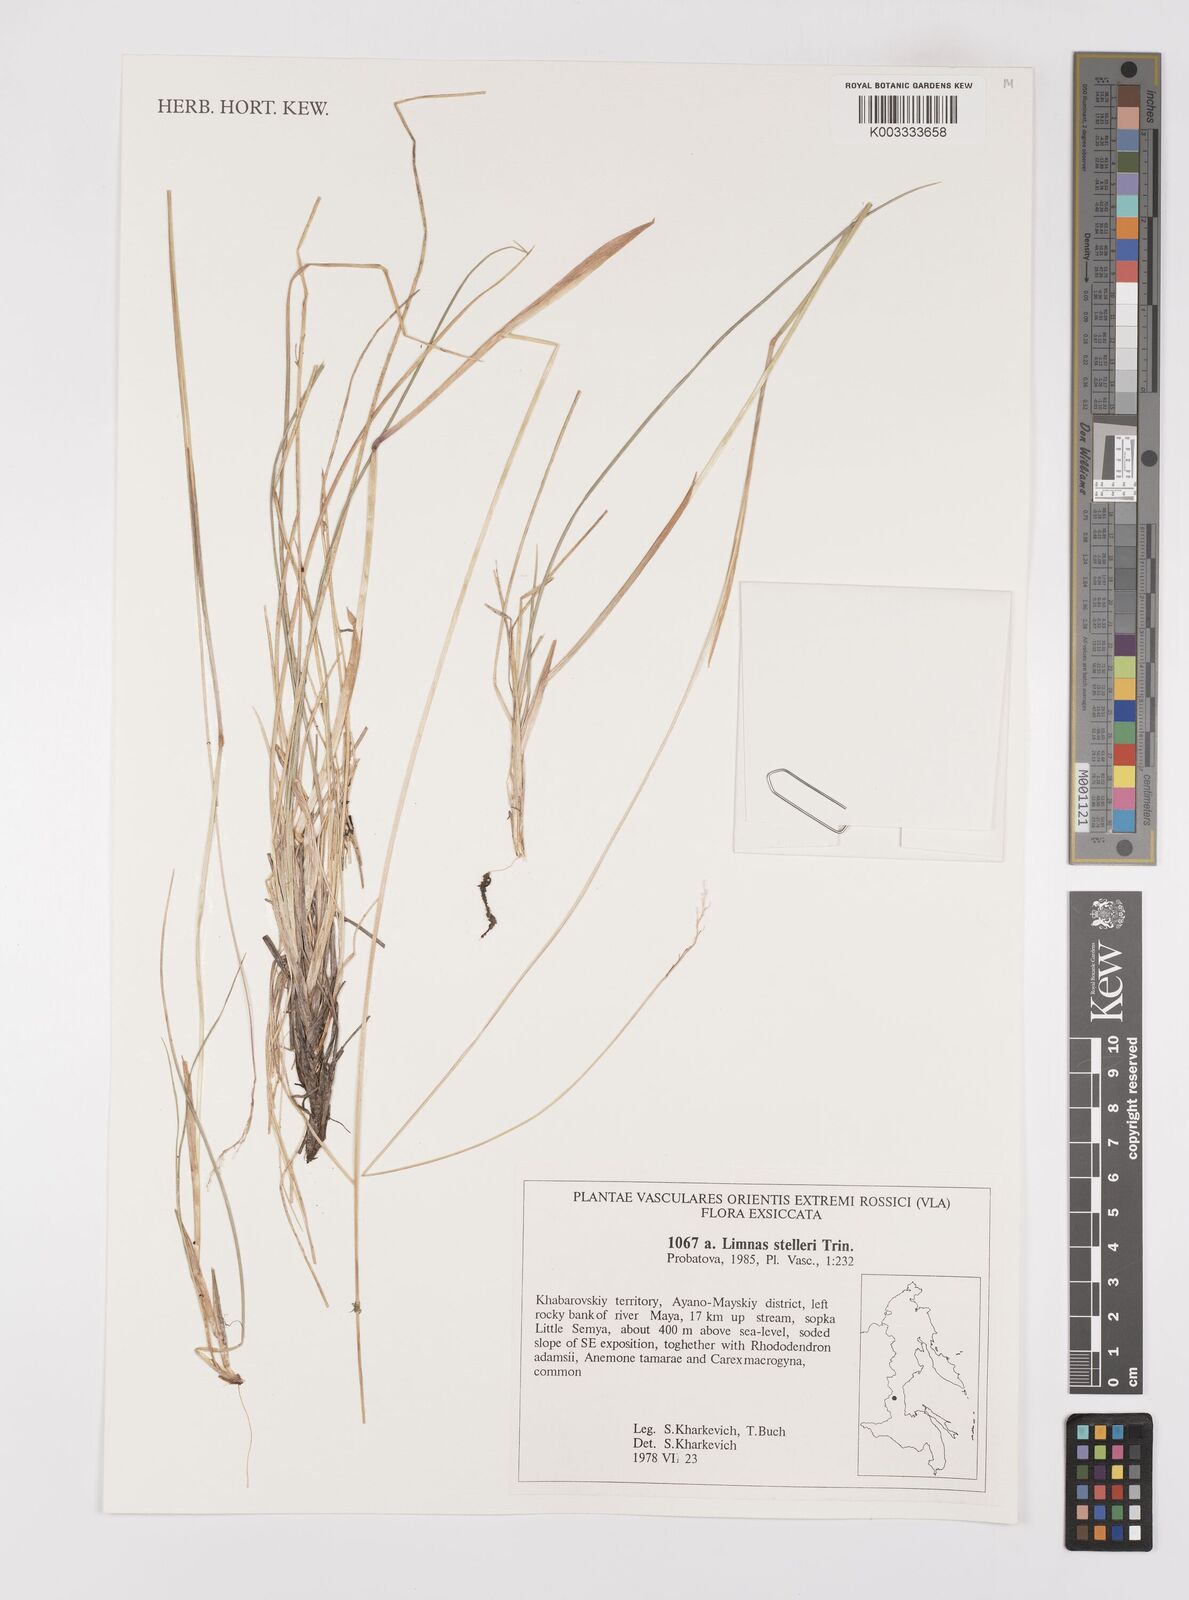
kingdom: Plantae
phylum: Tracheophyta
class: Liliopsida
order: Poales
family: Poaceae
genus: Limnas
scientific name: Limnas stelleri
